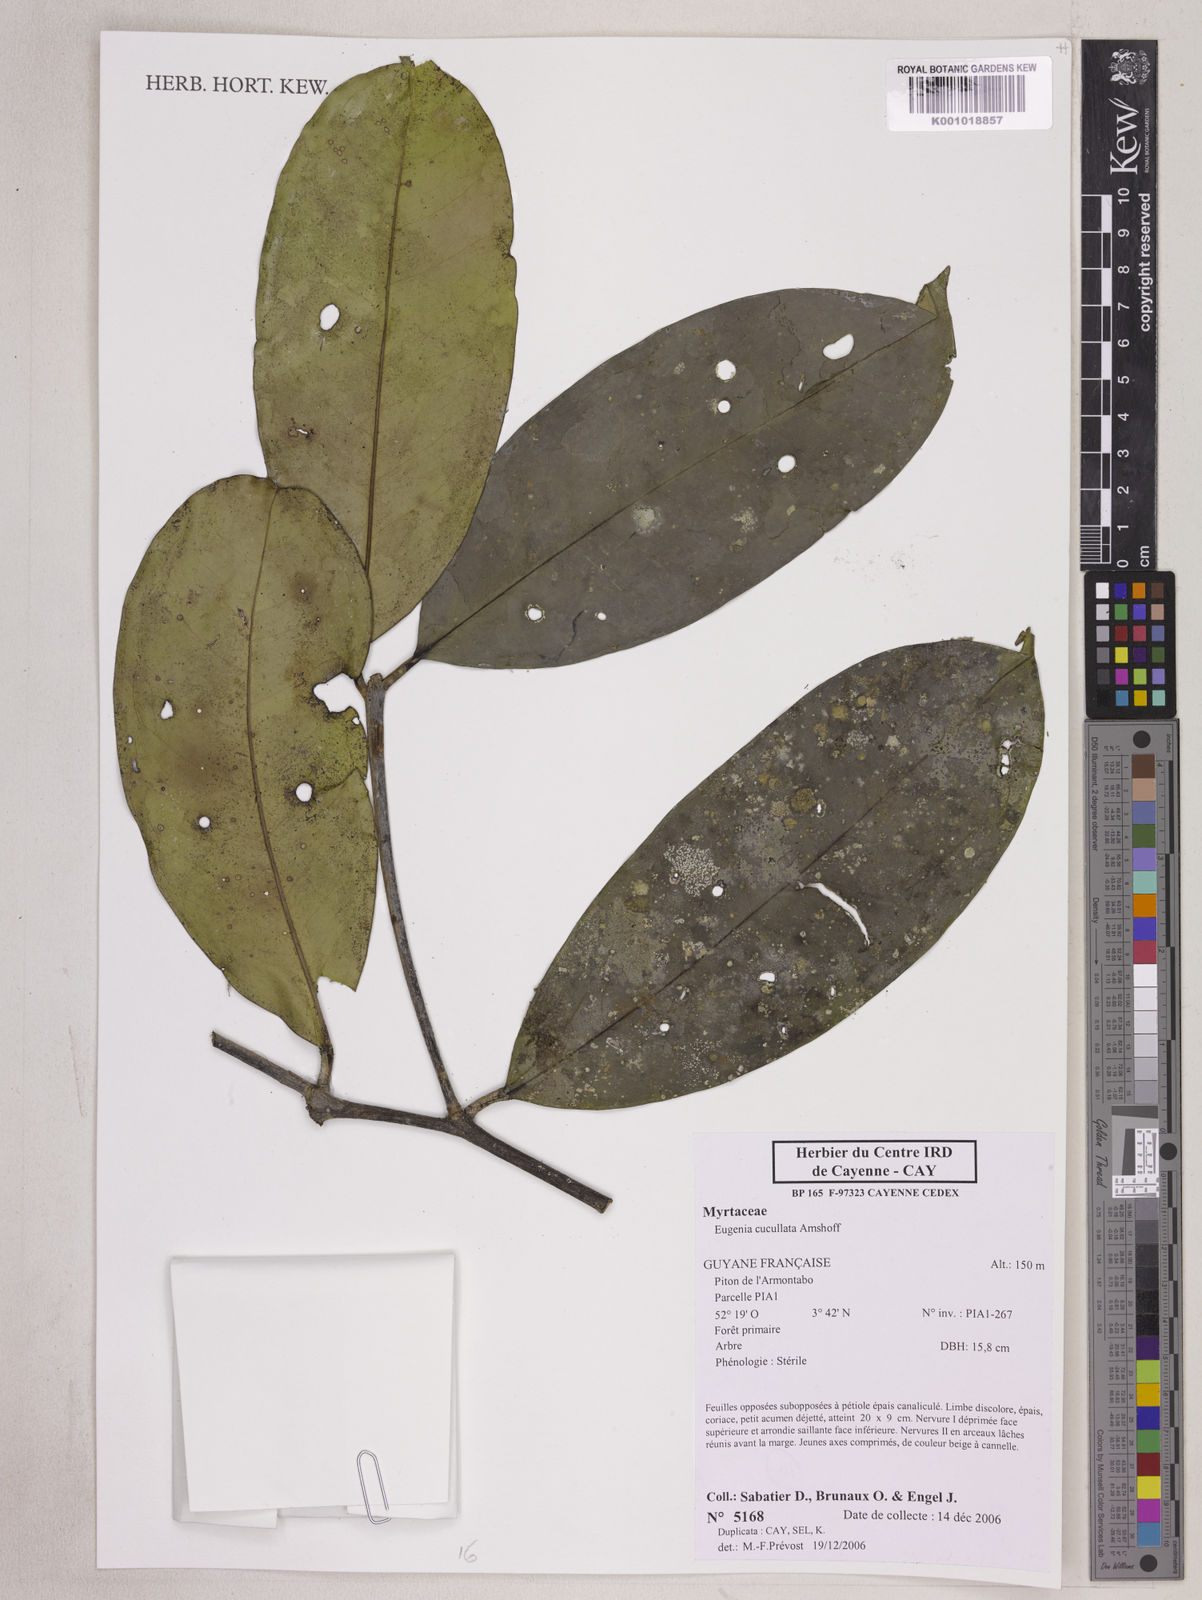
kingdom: Plantae
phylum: Tracheophyta
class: Magnoliopsida
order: Myrtales
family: Myrtaceae
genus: Eugenia
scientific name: Eugenia cucullata
